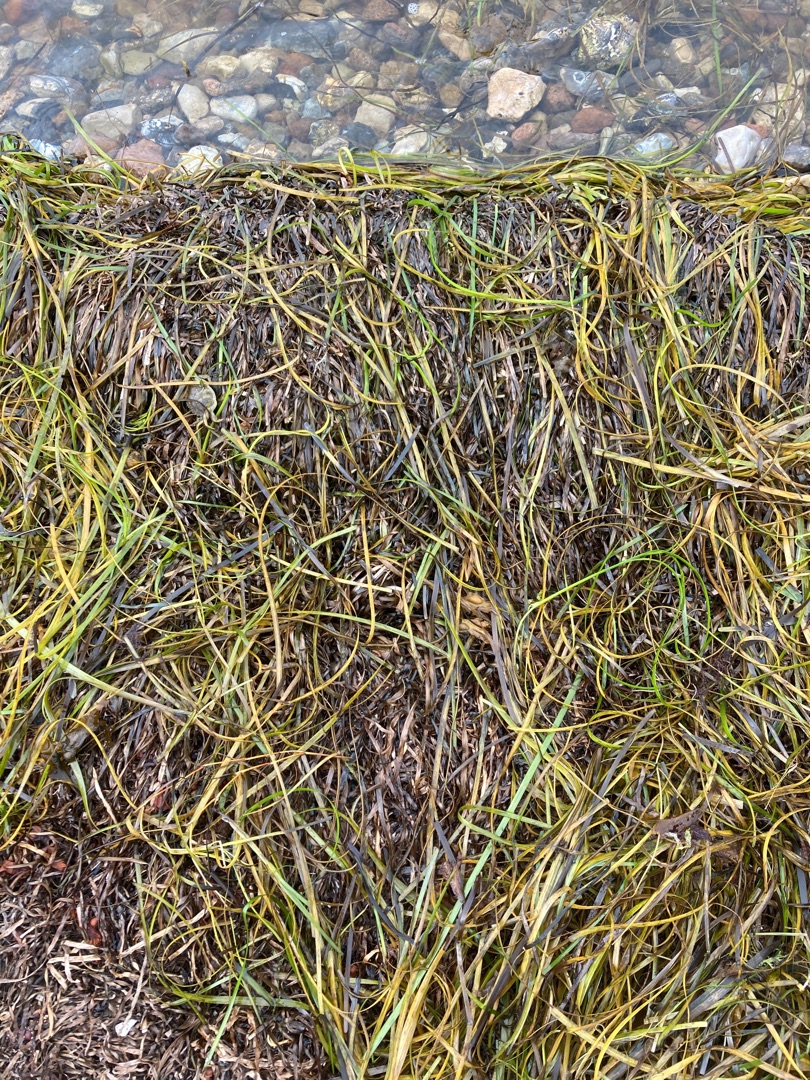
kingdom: Plantae
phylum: Tracheophyta
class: Liliopsida
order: Alismatales
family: Zosteraceae
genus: Zostera
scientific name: Zostera marina
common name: Almindelig bændeltang
